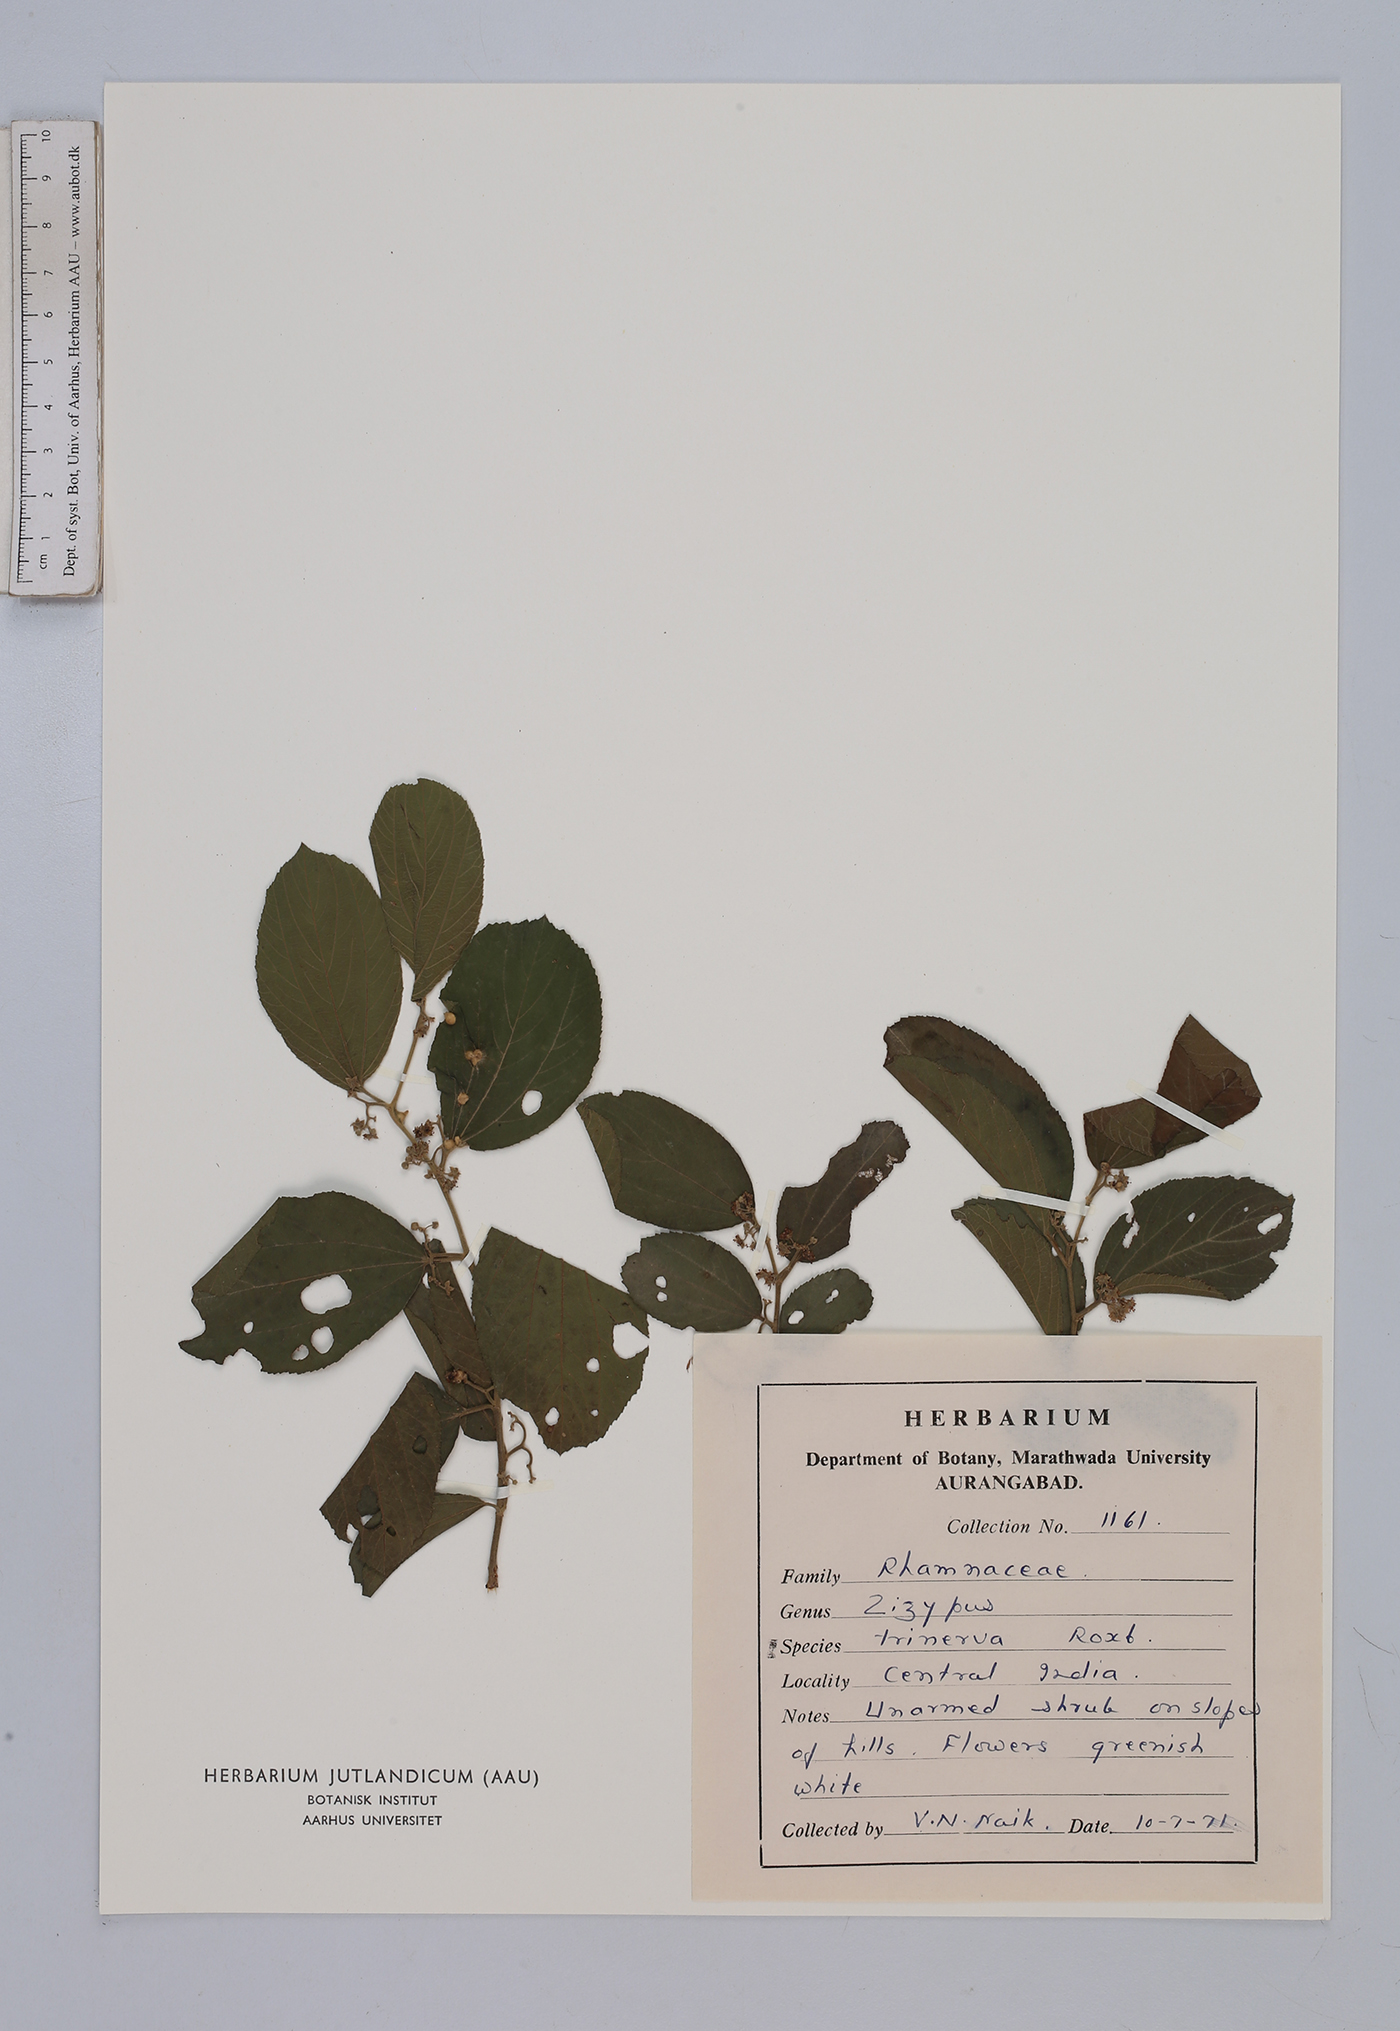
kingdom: Plantae
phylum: Tracheophyta
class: Magnoliopsida
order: Rosales
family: Rhamnaceae
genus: Ziziphus
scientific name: Ziziphus jujuba
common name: Jujube red date
